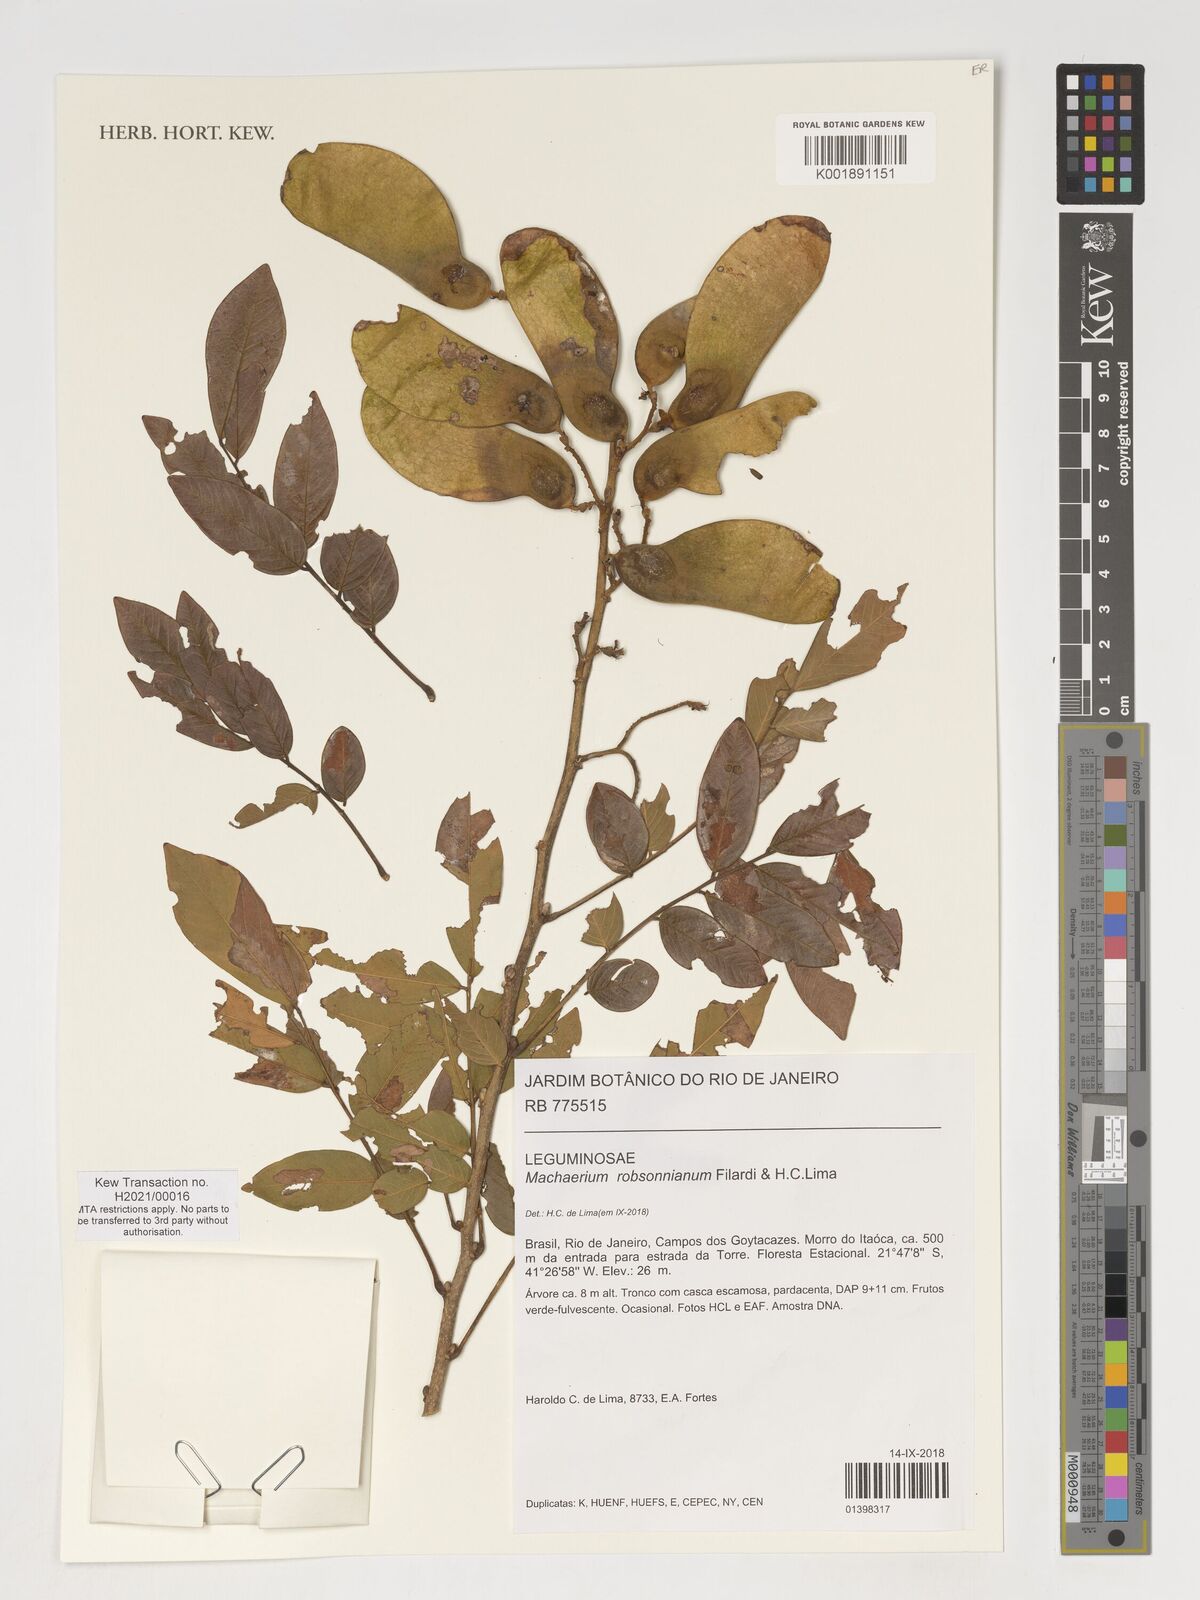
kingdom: Plantae
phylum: Tracheophyta
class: Magnoliopsida
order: Fabales
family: Fabaceae
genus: Machaerium
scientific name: Machaerium robsonianum
